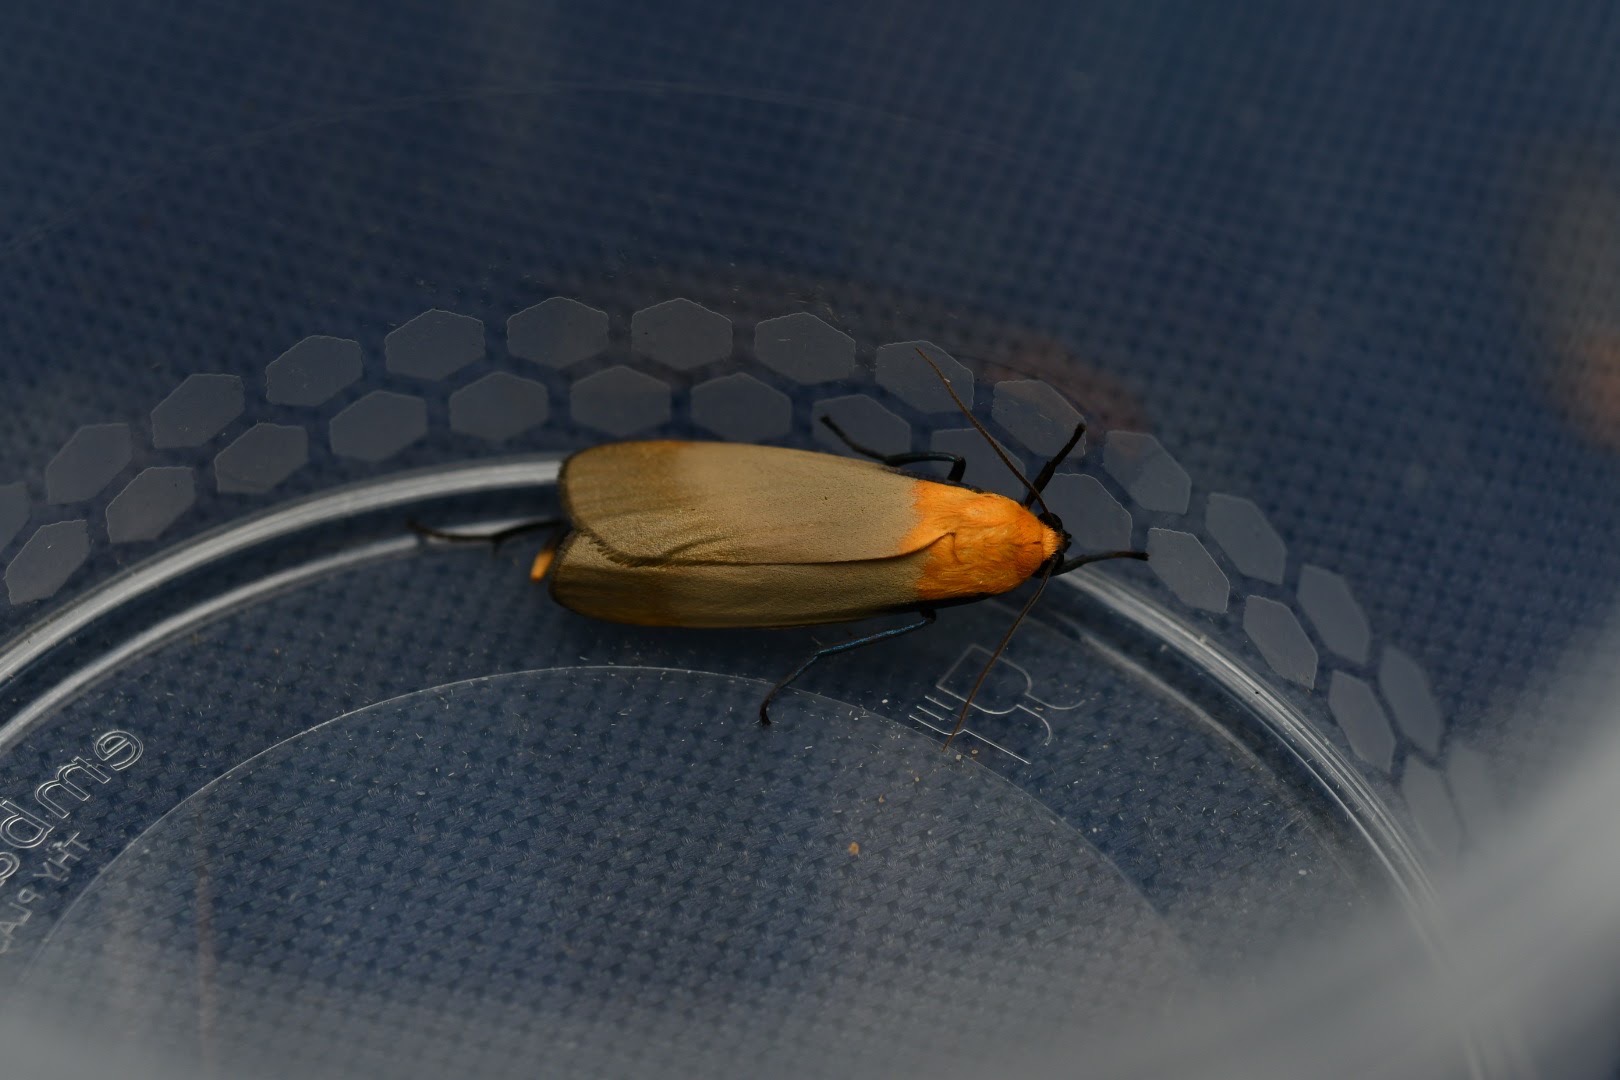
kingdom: Animalia
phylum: Arthropoda
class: Insecta
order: Lepidoptera
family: Erebidae
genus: Lithosia
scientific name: Lithosia quadra
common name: Stor lavspinder
